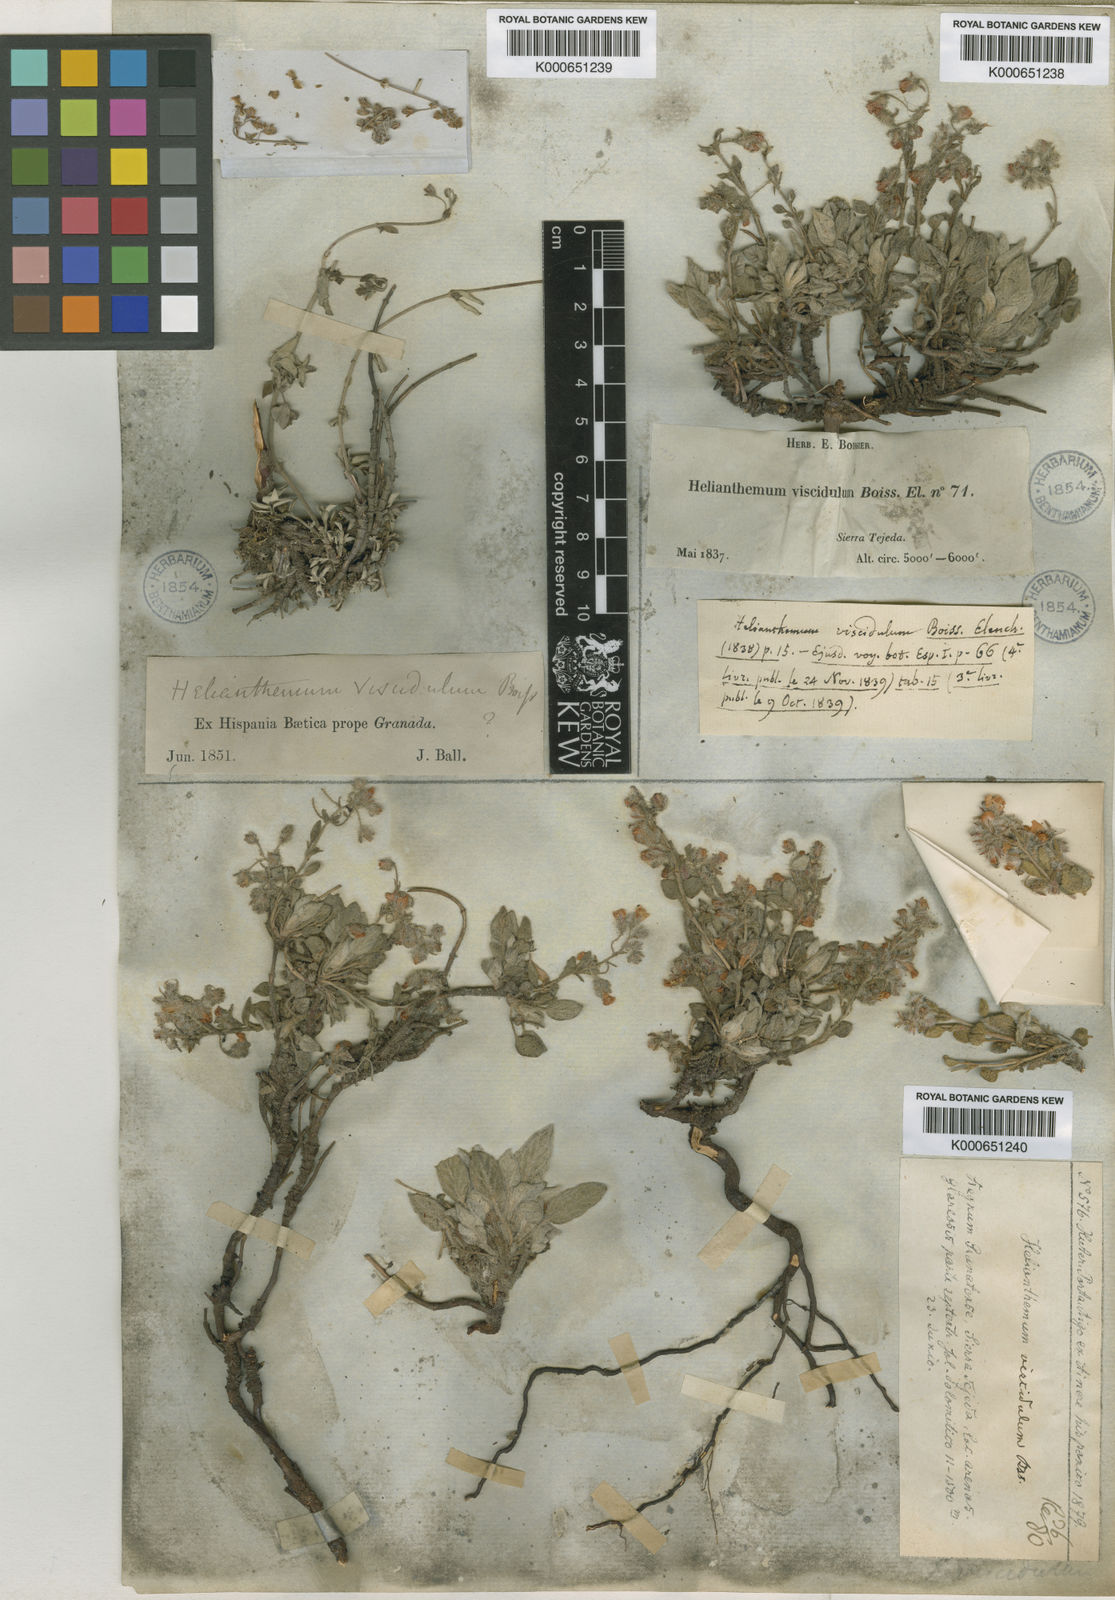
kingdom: Plantae
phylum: Tracheophyta
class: Magnoliopsida
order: Malvales
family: Cistaceae
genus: Helianthemum
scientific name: Helianthemum viscidulum
